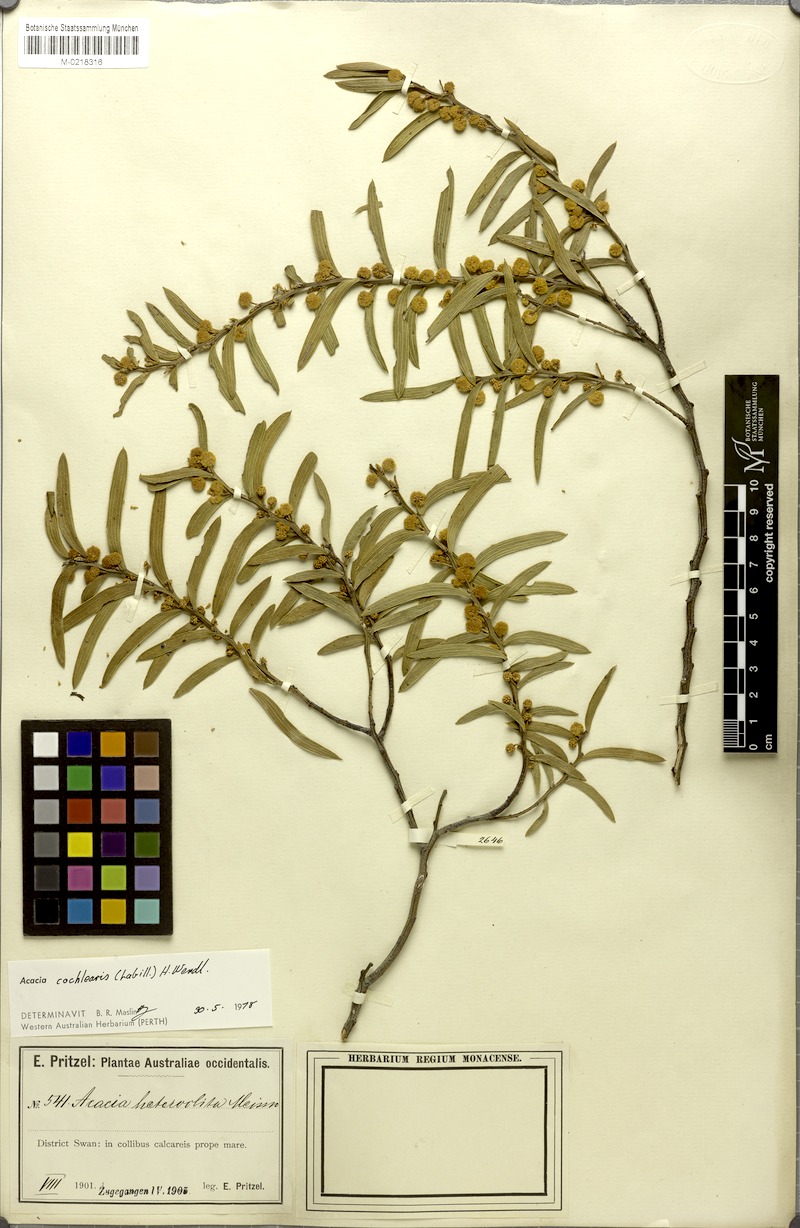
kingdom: Plantae
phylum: Tracheophyta
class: Magnoliopsida
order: Fabales
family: Fabaceae
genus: Acacia
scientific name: Acacia cochlearis
